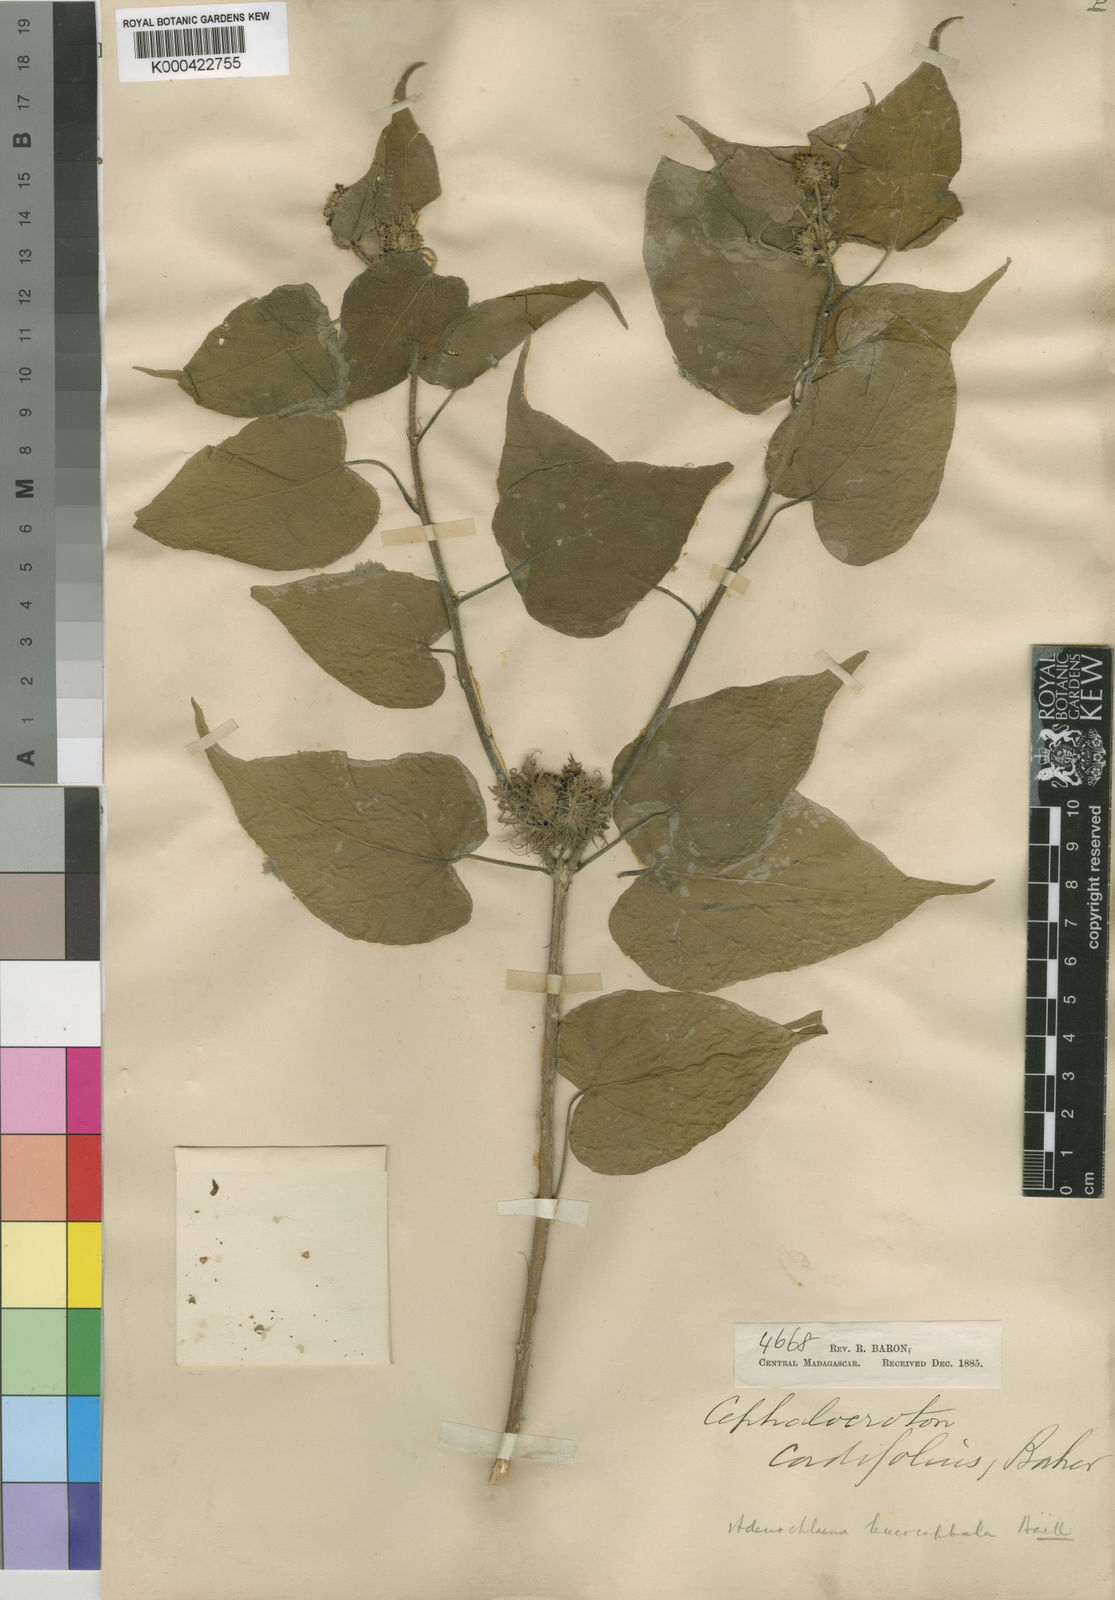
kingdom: Plantae
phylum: Tracheophyta
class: Magnoliopsida
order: Malpighiales
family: Euphorbiaceae
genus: Adenochlaena
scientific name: Adenochlaena leucocephala
